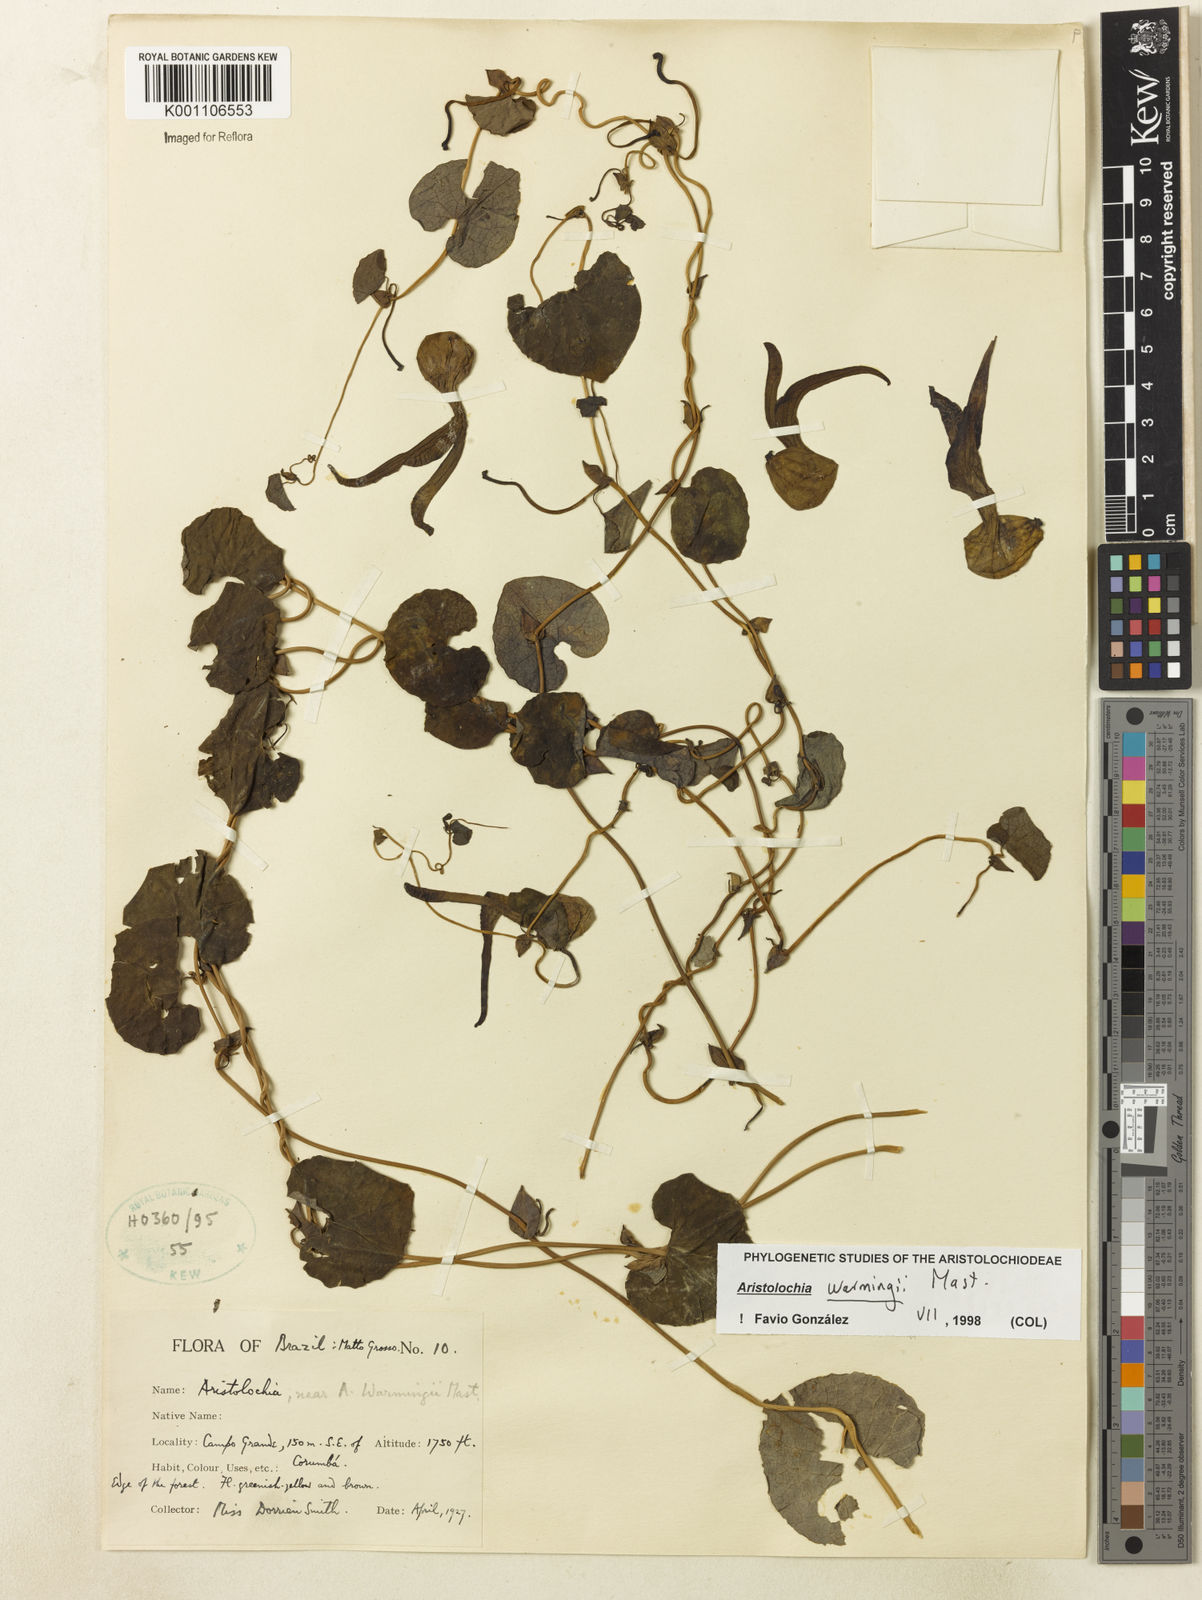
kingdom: Plantae
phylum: Tracheophyta
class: Magnoliopsida
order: Piperales
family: Aristolochiaceae
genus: Aristolochia
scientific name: Aristolochia warmingii
